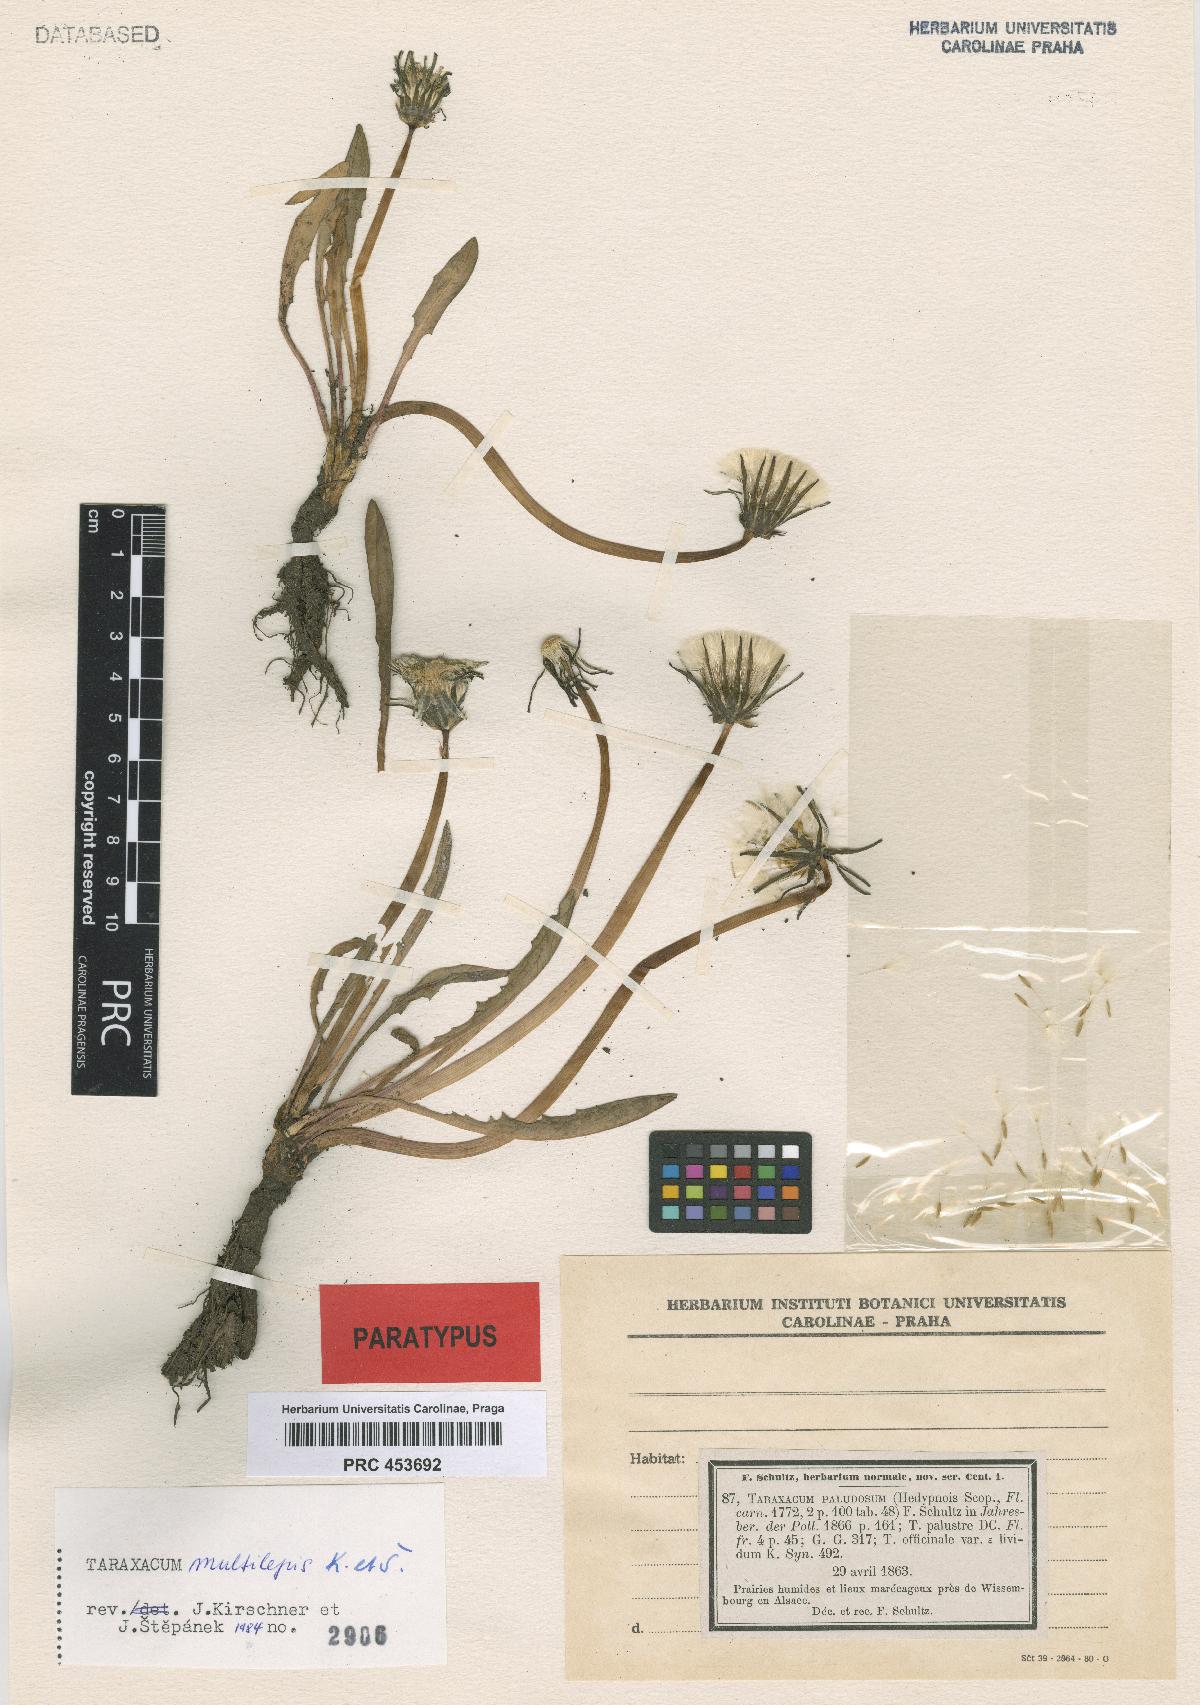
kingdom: Plantae
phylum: Tracheophyta
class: Magnoliopsida
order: Asterales
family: Asteraceae
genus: Taraxacum
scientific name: Taraxacum multilepis
